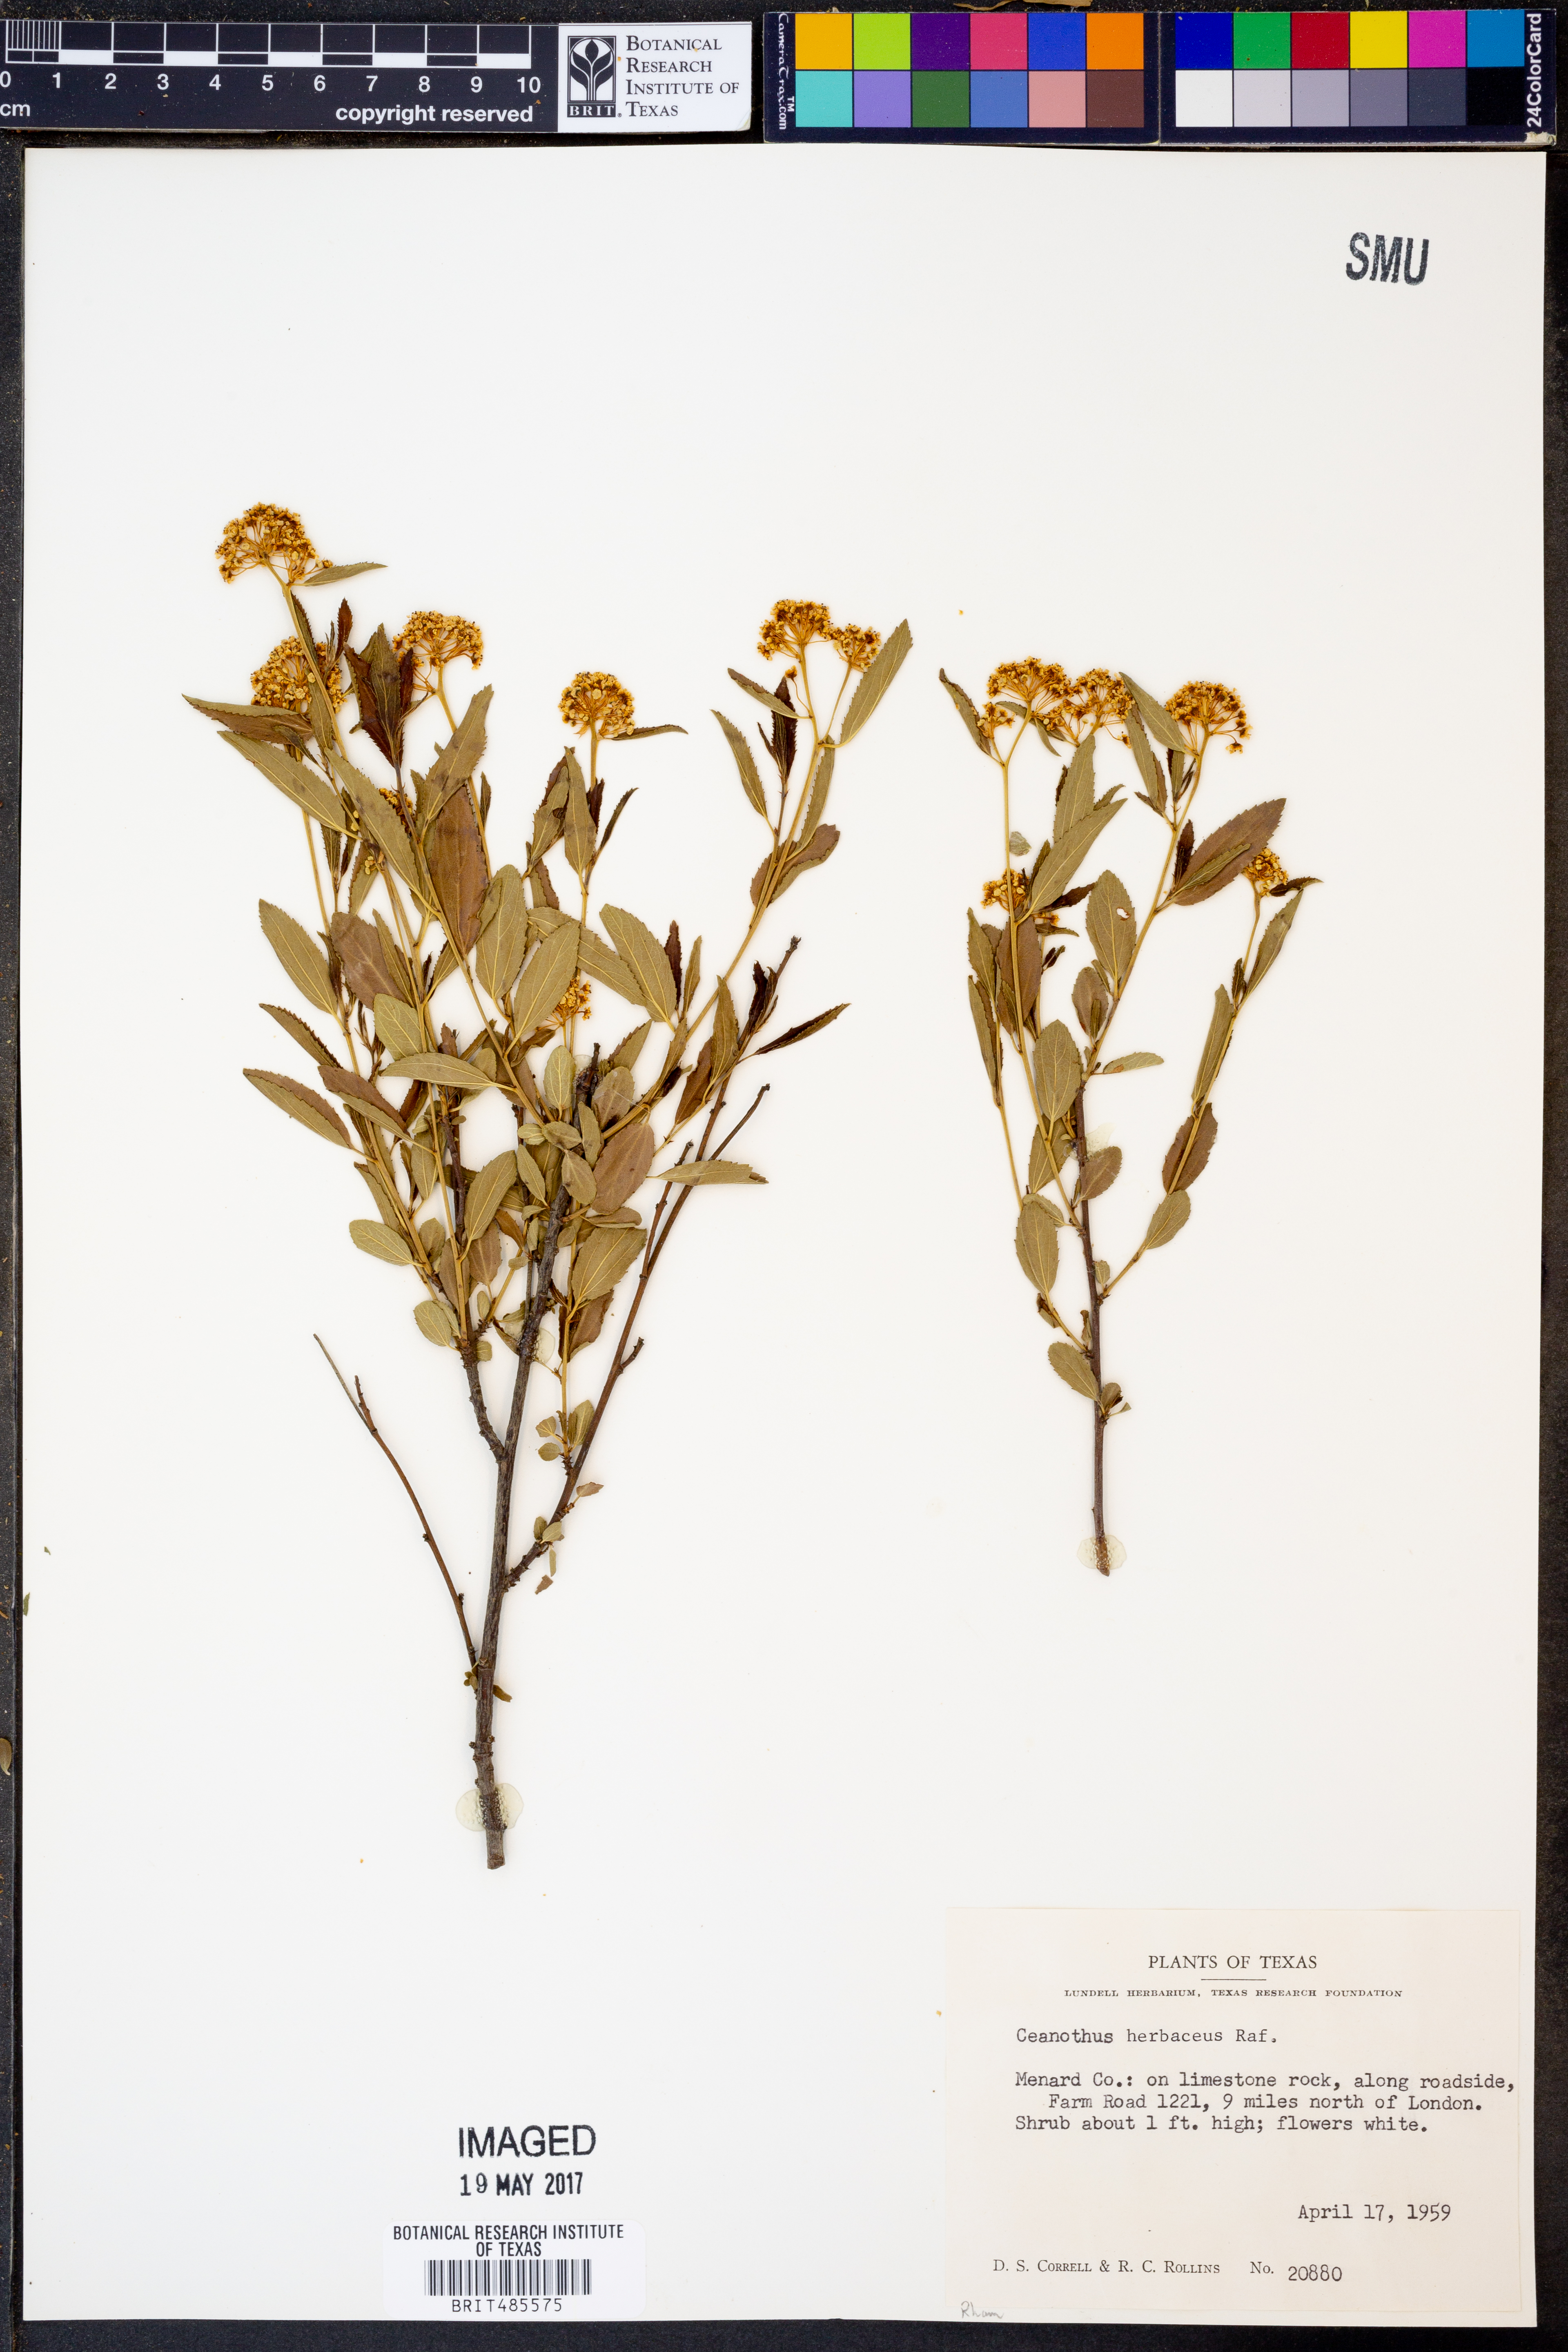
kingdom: Plantae
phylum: Tracheophyta
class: Magnoliopsida
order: Rosales
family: Rhamnaceae
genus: Ceanothus
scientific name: Ceanothus herbaceus
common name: Inland ceanothus
